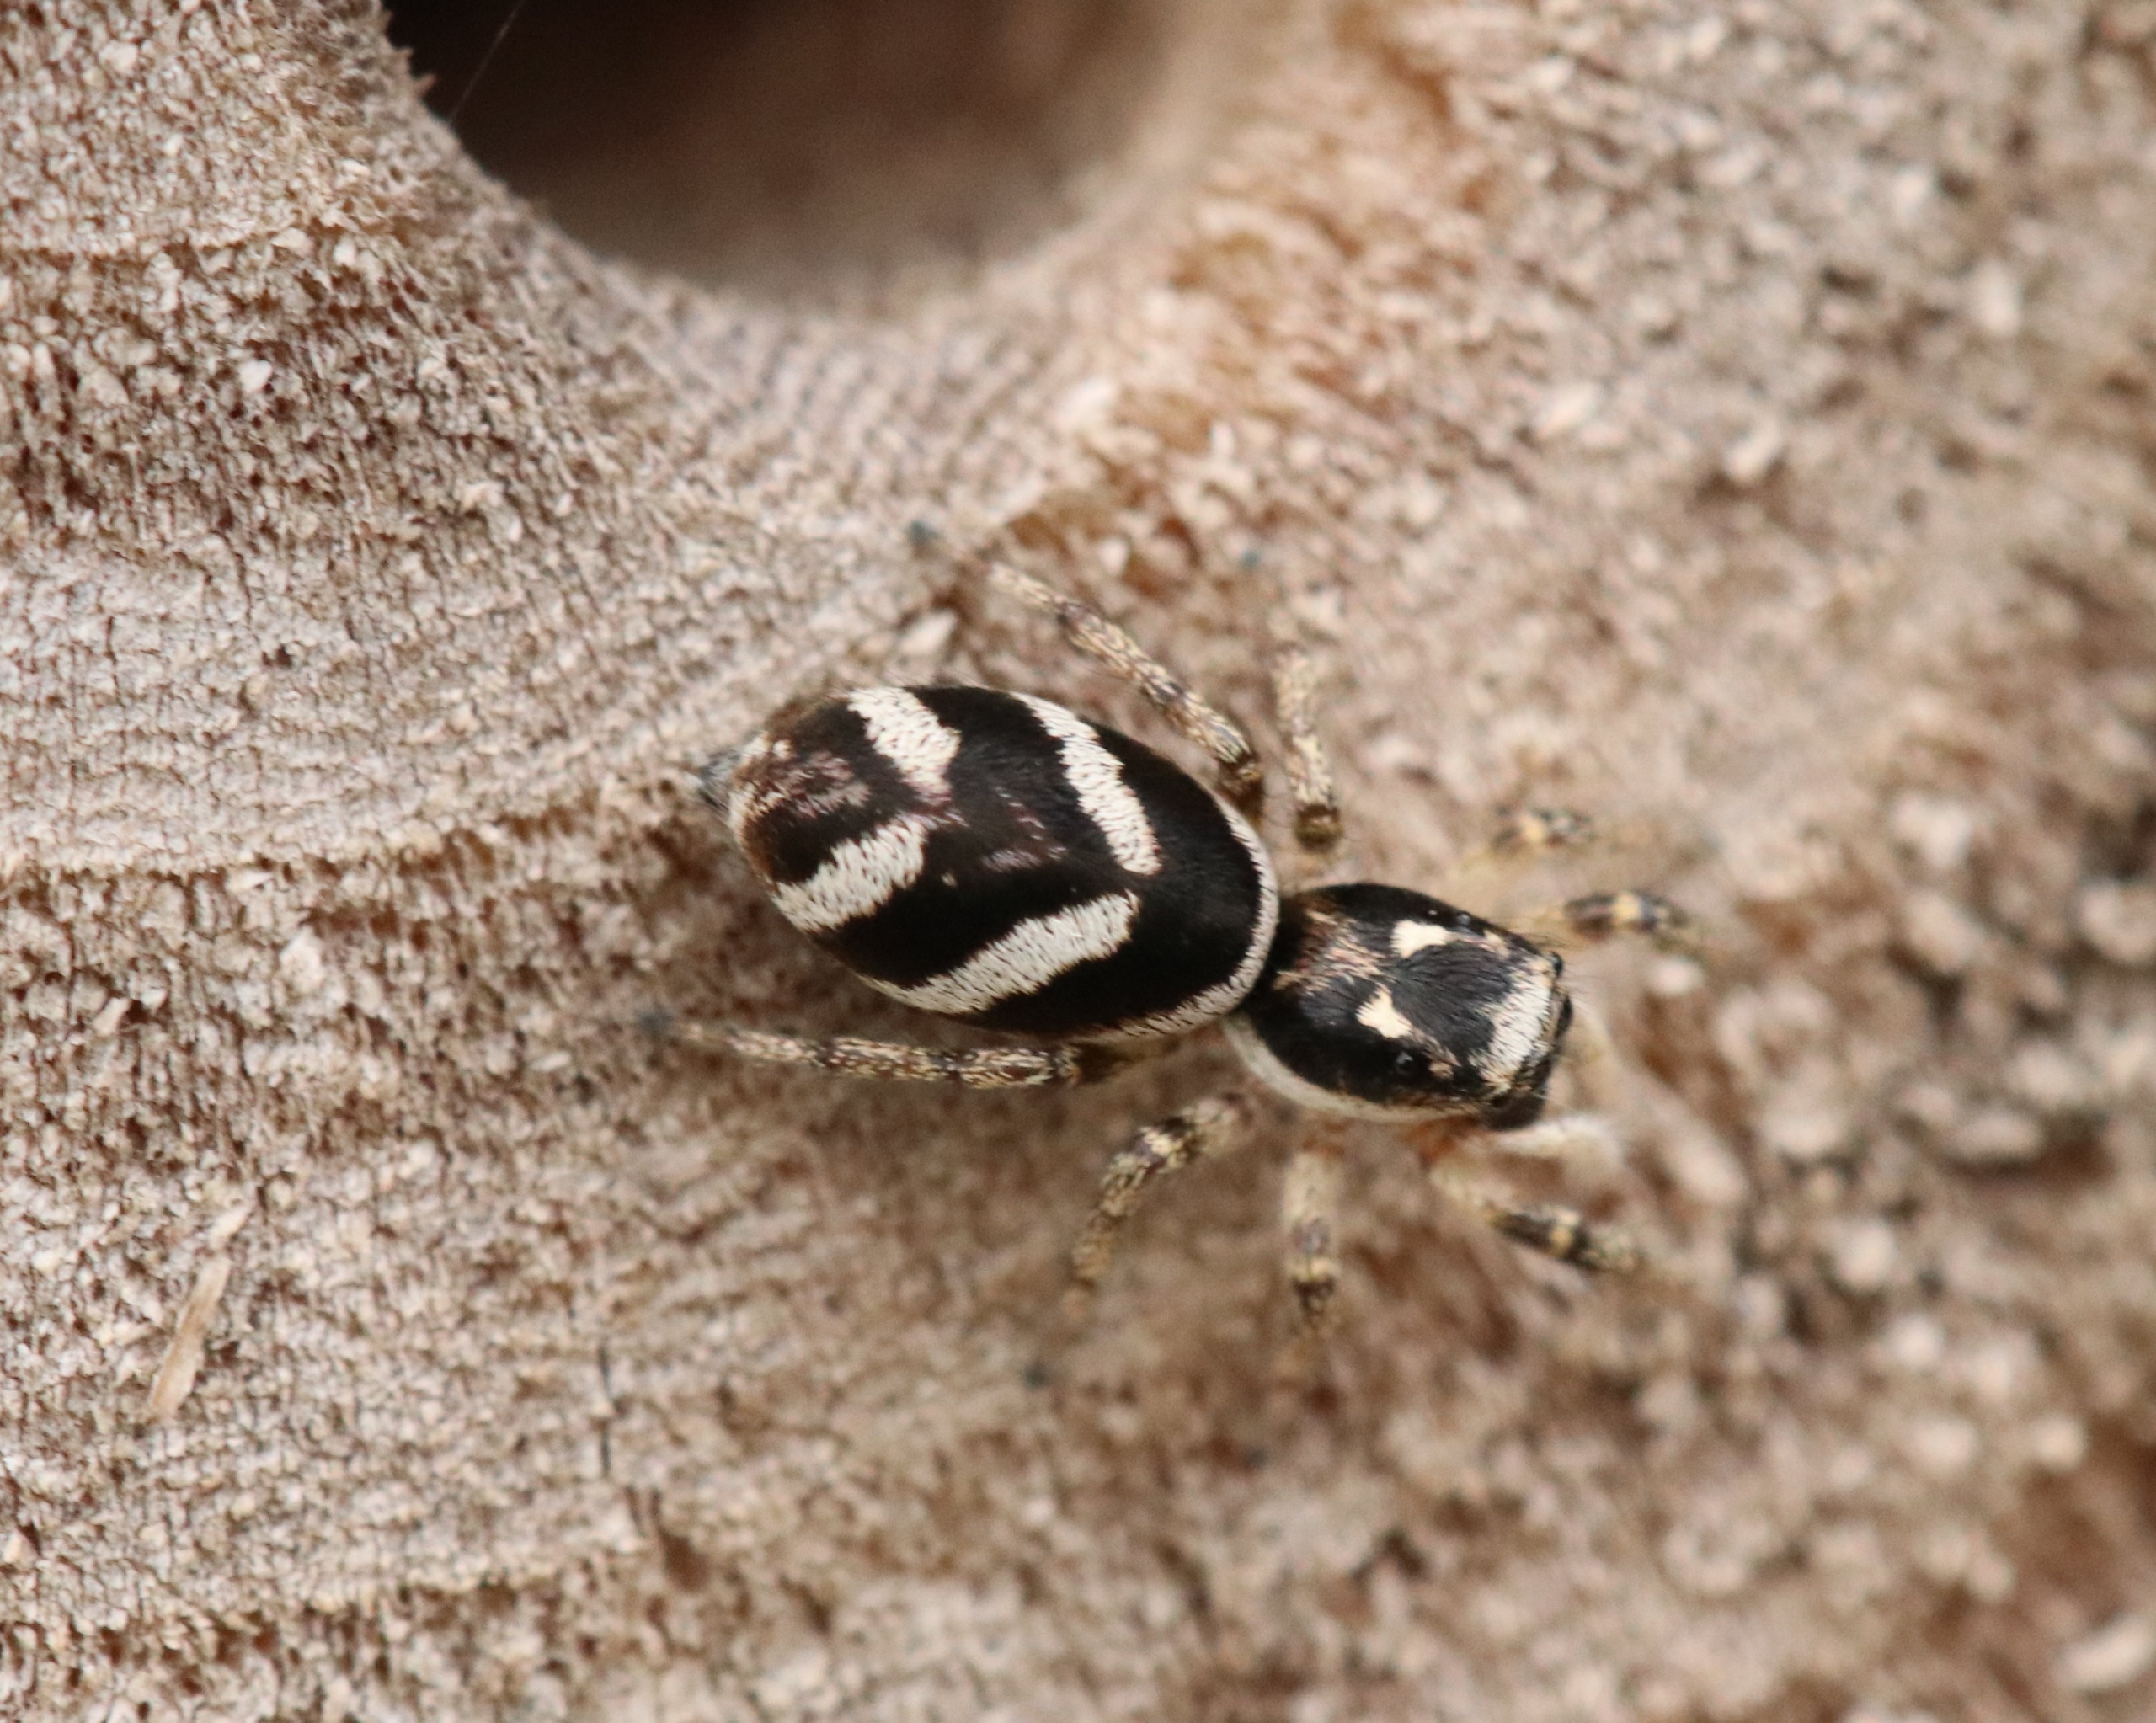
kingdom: Animalia
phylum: Arthropoda
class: Arachnida
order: Araneae
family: Salticidae
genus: Salticus
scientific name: Salticus scenicus
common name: Almindelig zebraedderkop
